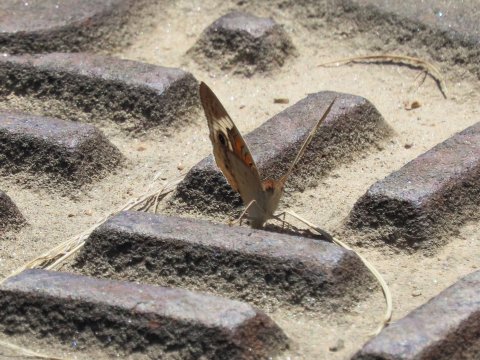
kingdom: Animalia
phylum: Arthropoda
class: Insecta
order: Lepidoptera
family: Nymphalidae
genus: Junonia
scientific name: Junonia coenia
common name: Common Buckeye
